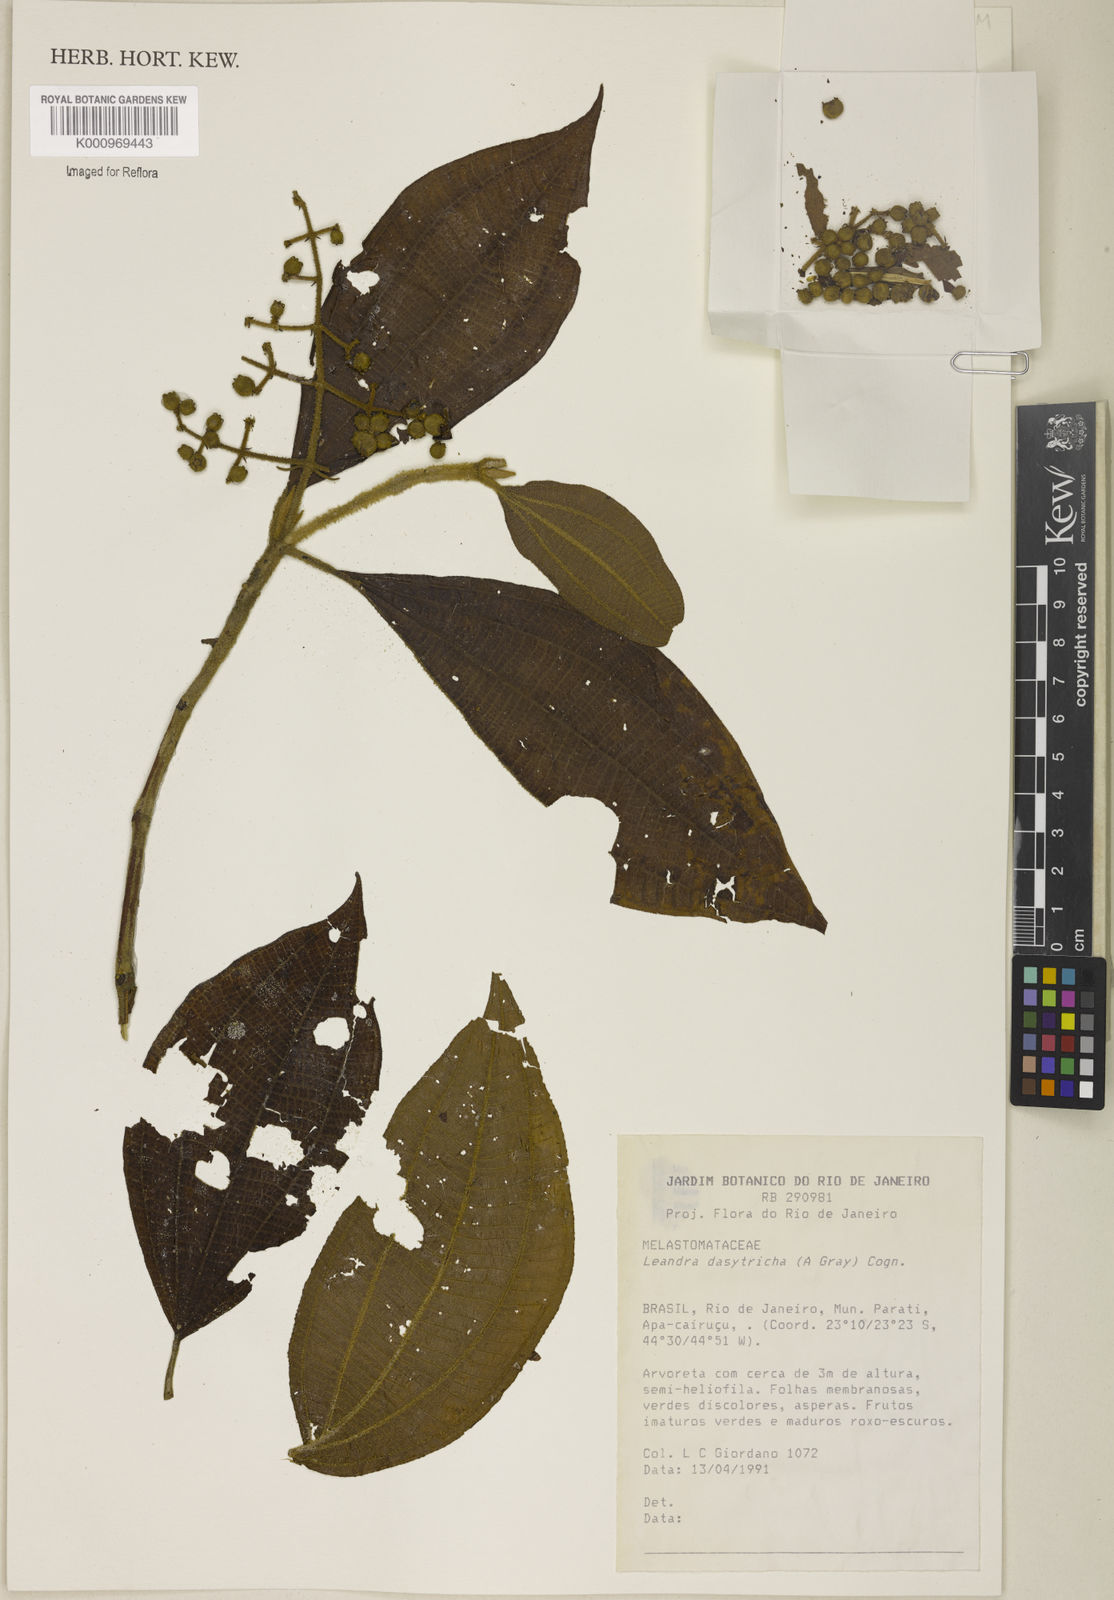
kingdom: Plantae
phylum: Tracheophyta
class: Magnoliopsida
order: Myrtales
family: Melastomataceae
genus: Miconia
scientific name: Miconia dasytricha
